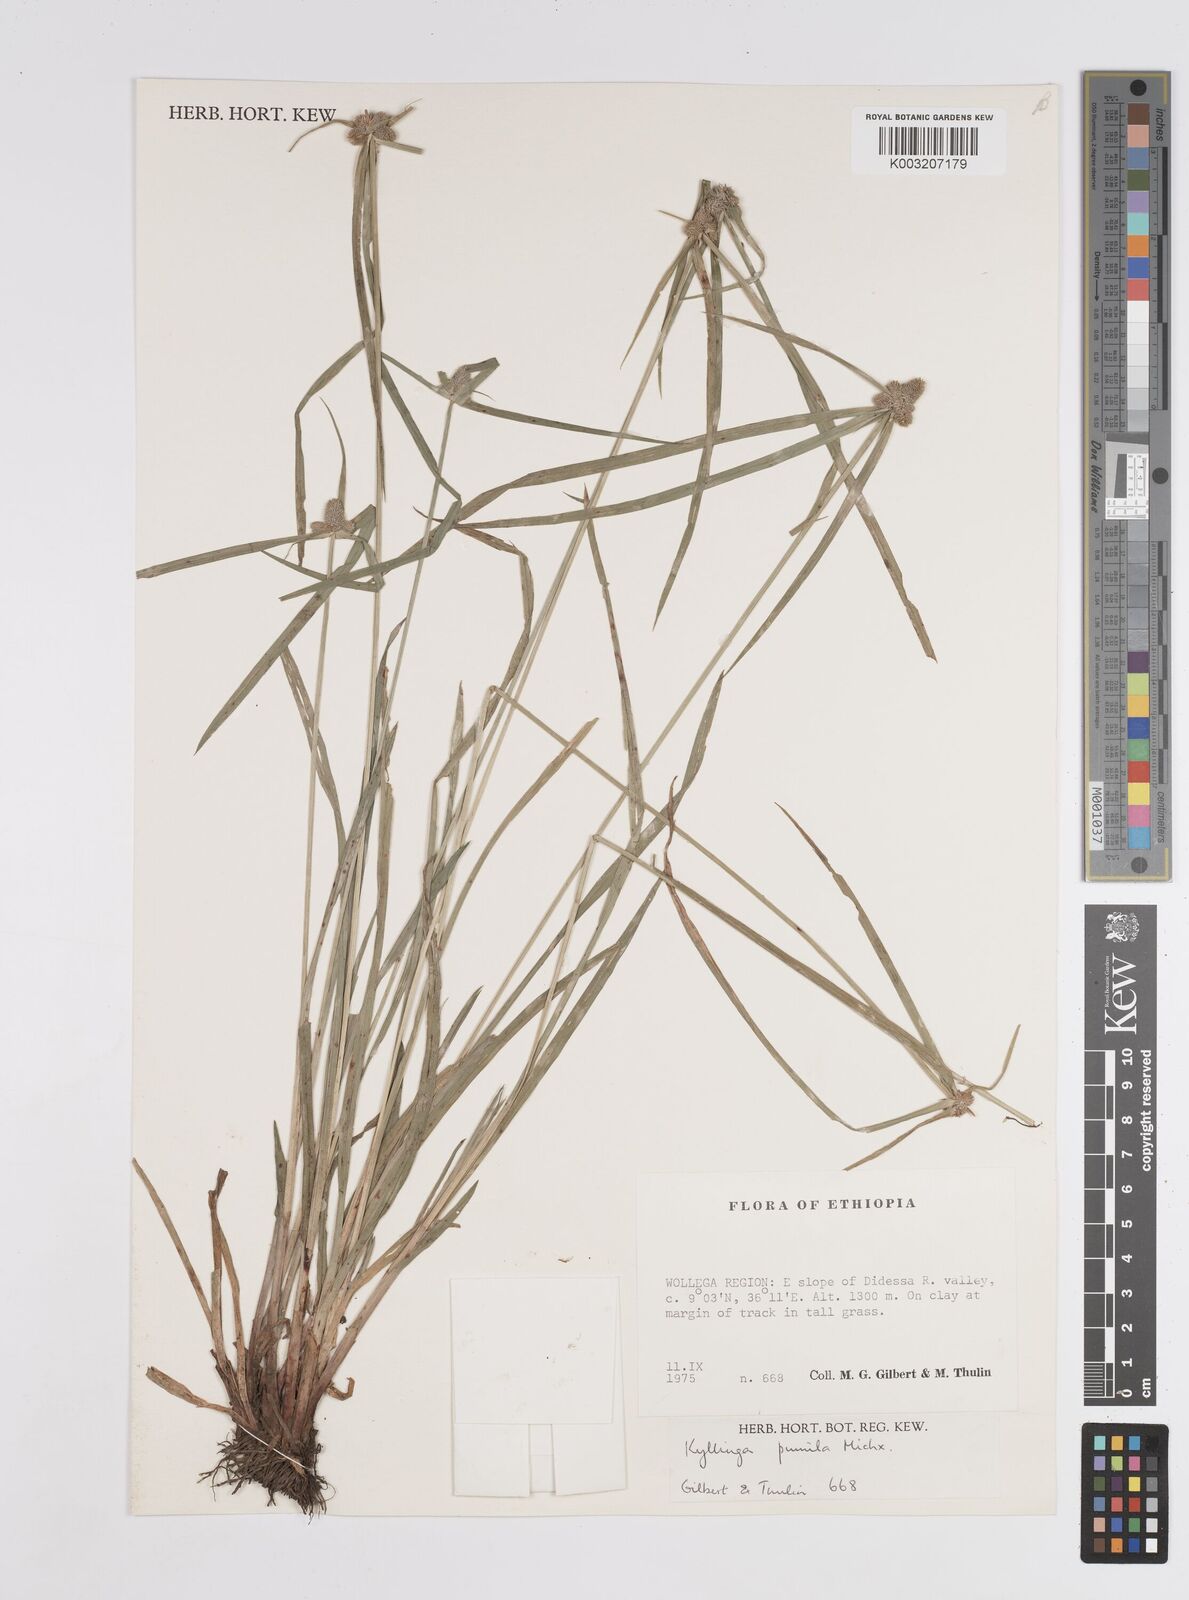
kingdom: Plantae
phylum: Tracheophyta
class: Liliopsida
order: Poales
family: Cyperaceae
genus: Cyperus
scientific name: Cyperus
